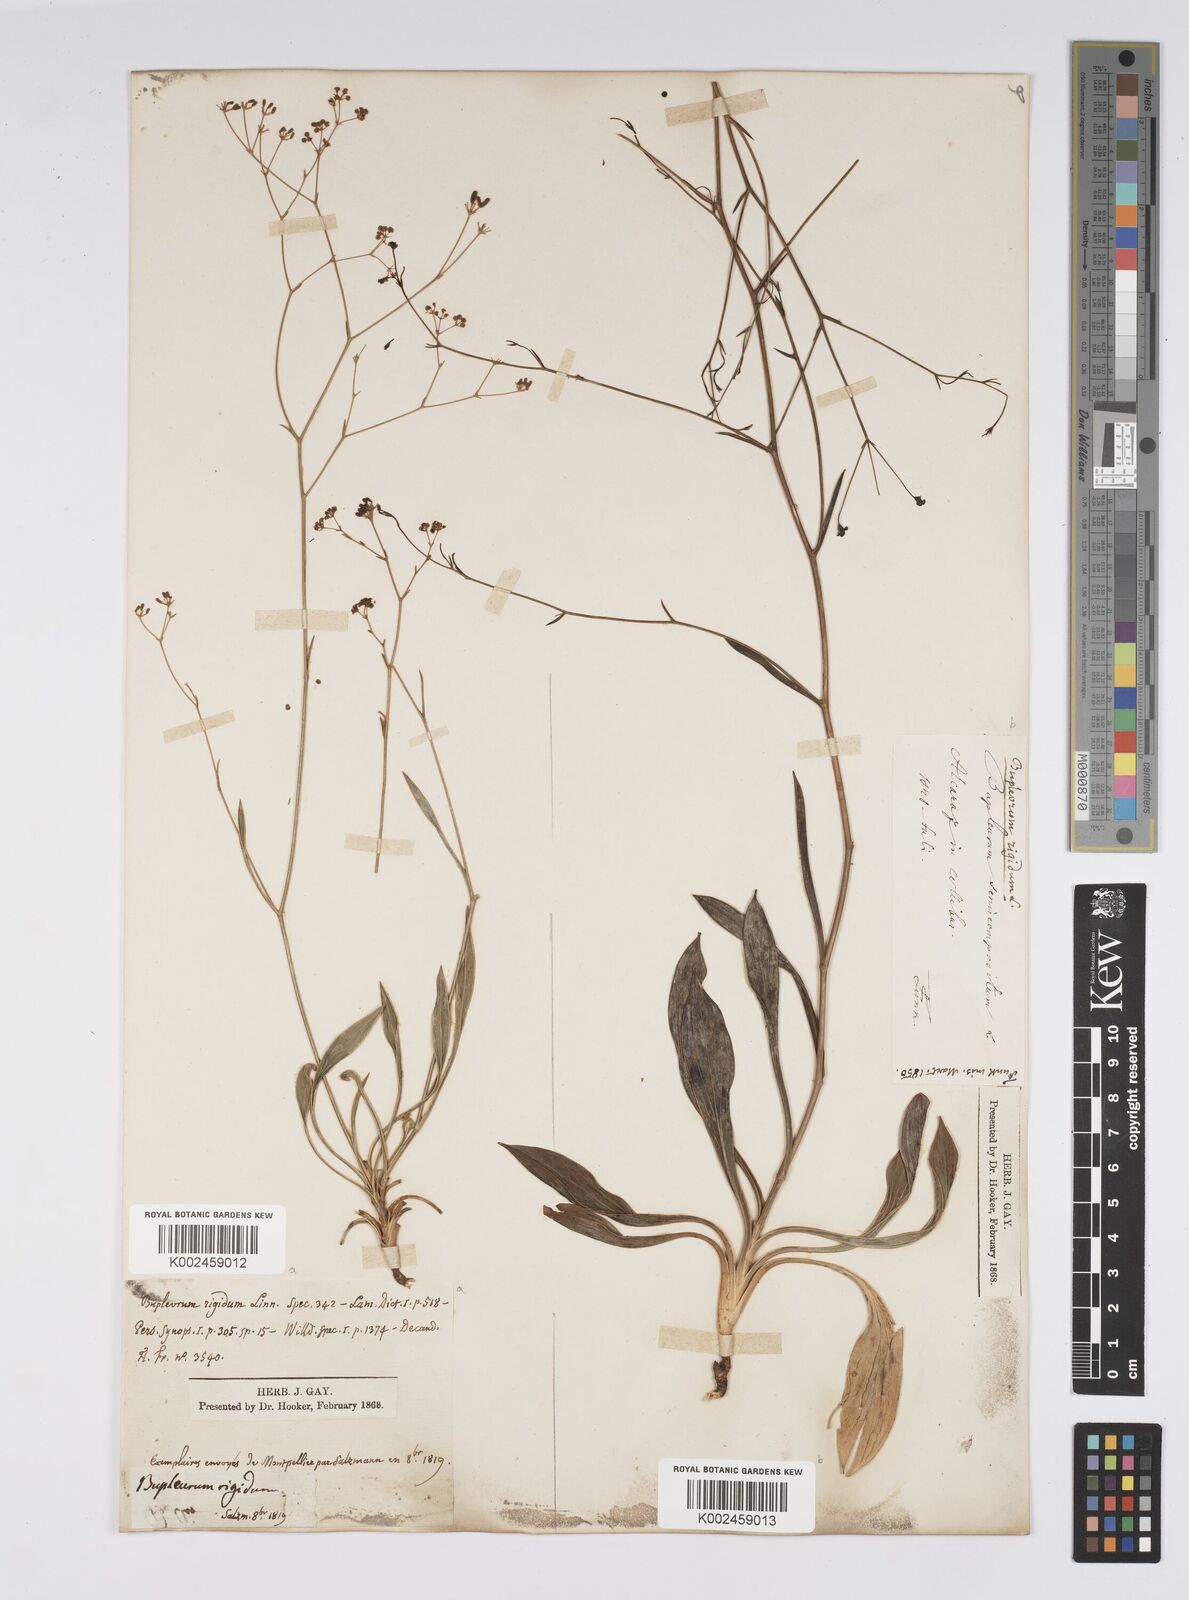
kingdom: Plantae
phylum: Tracheophyta
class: Magnoliopsida
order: Apiales
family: Apiaceae
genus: Bupleurum
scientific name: Bupleurum rigidum
